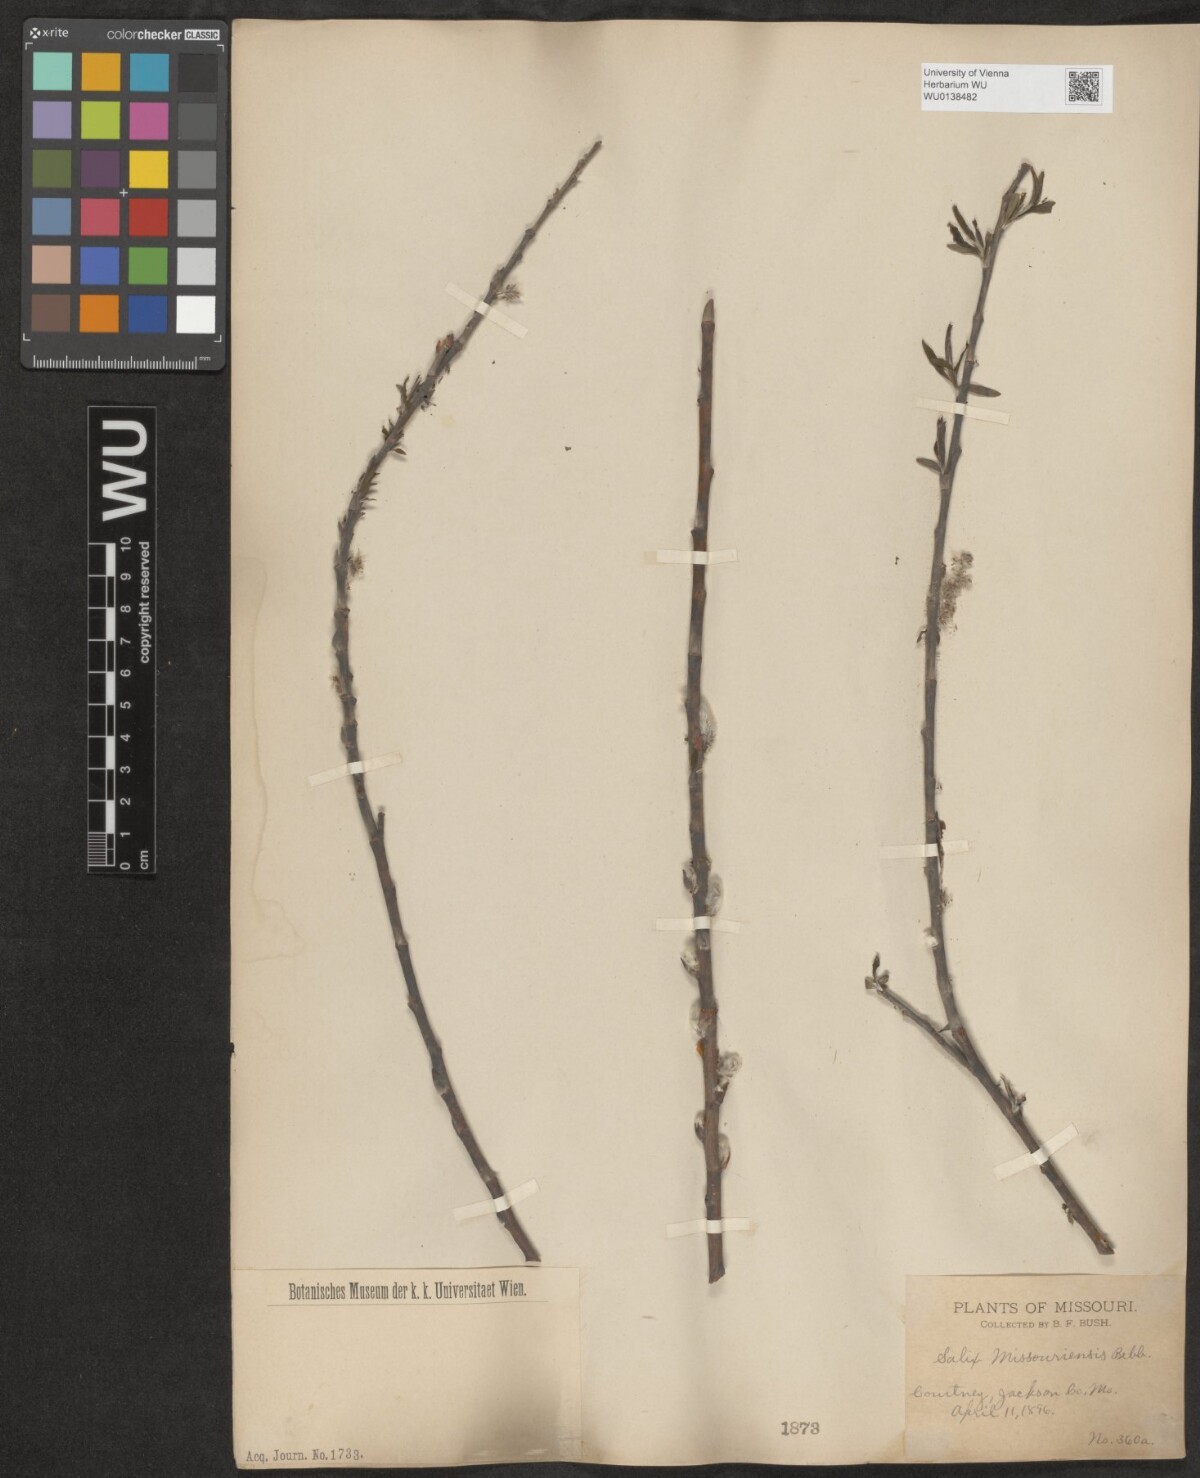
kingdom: Plantae
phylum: Tracheophyta
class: Magnoliopsida
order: Malpighiales
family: Salicaceae
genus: Salix
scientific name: Salix eriocephala
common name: Heart-leaved willow
